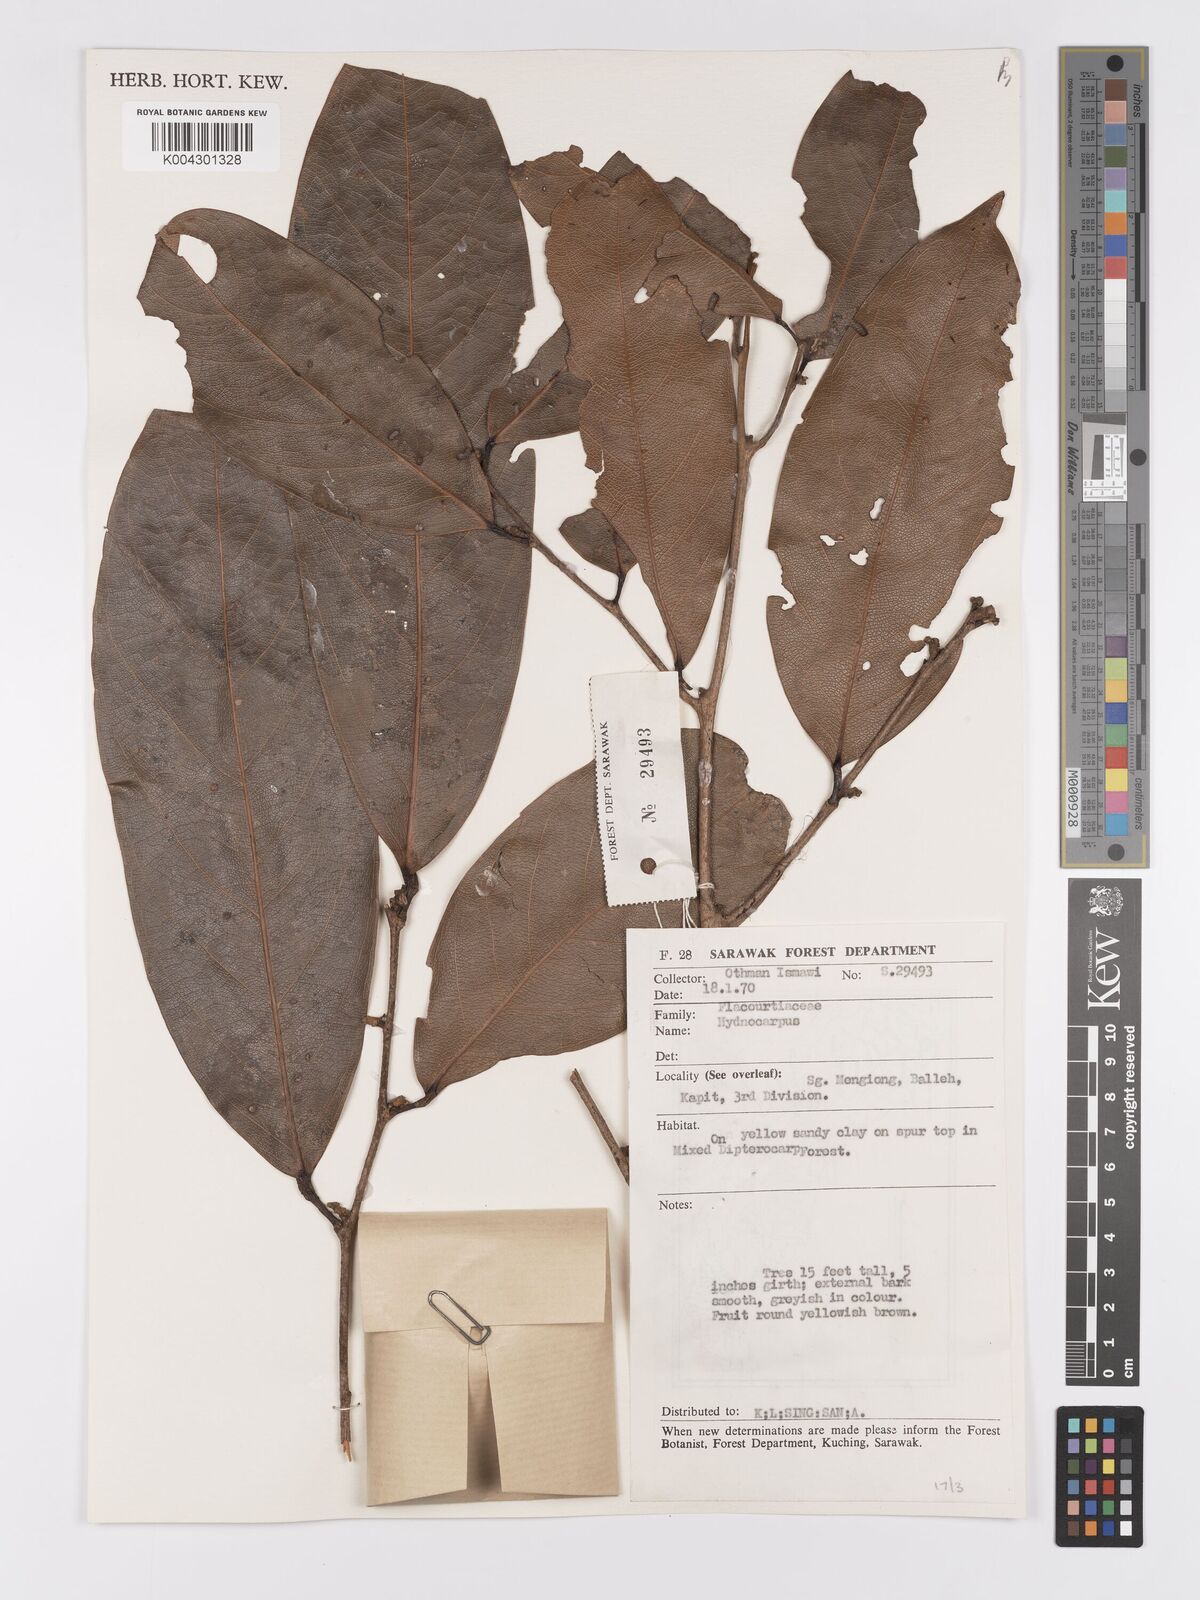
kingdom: Plantae
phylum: Tracheophyta
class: Magnoliopsida
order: Malpighiales
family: Achariaceae
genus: Hydnocarpus
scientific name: Hydnocarpus
